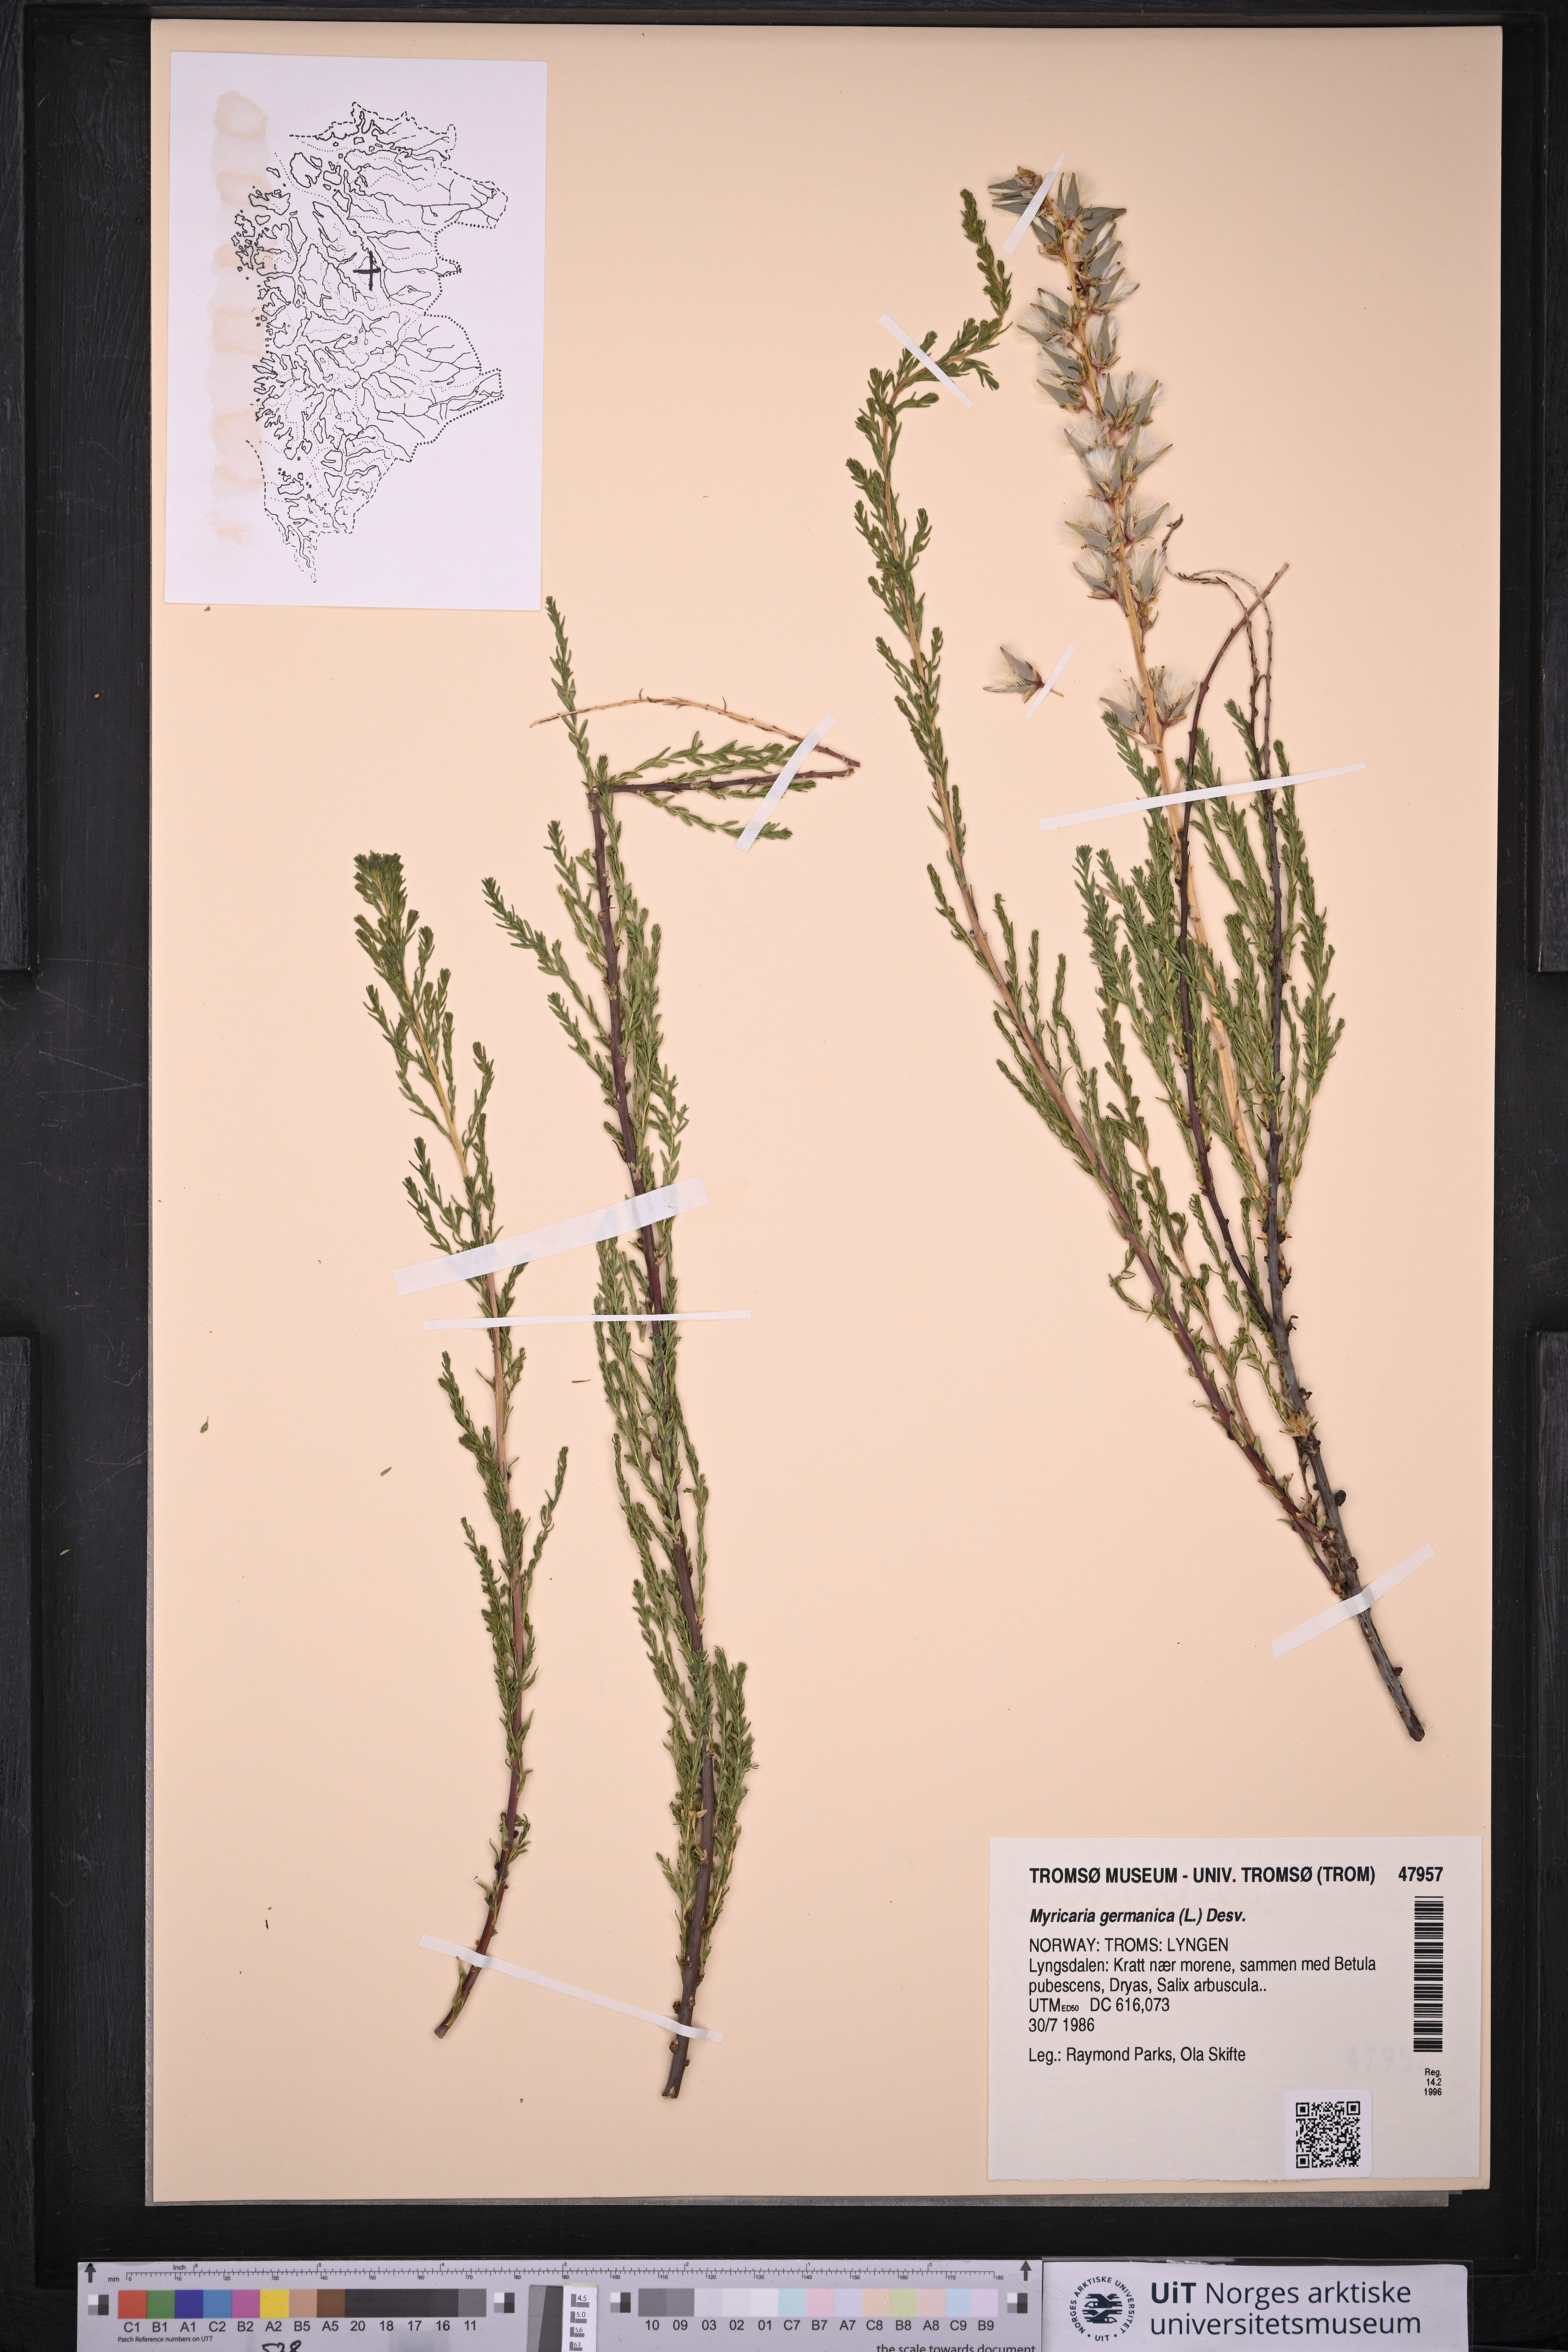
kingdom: Plantae
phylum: Tracheophyta
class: Magnoliopsida
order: Caryophyllales
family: Tamaricaceae
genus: Myricaria
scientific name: Myricaria germanica
